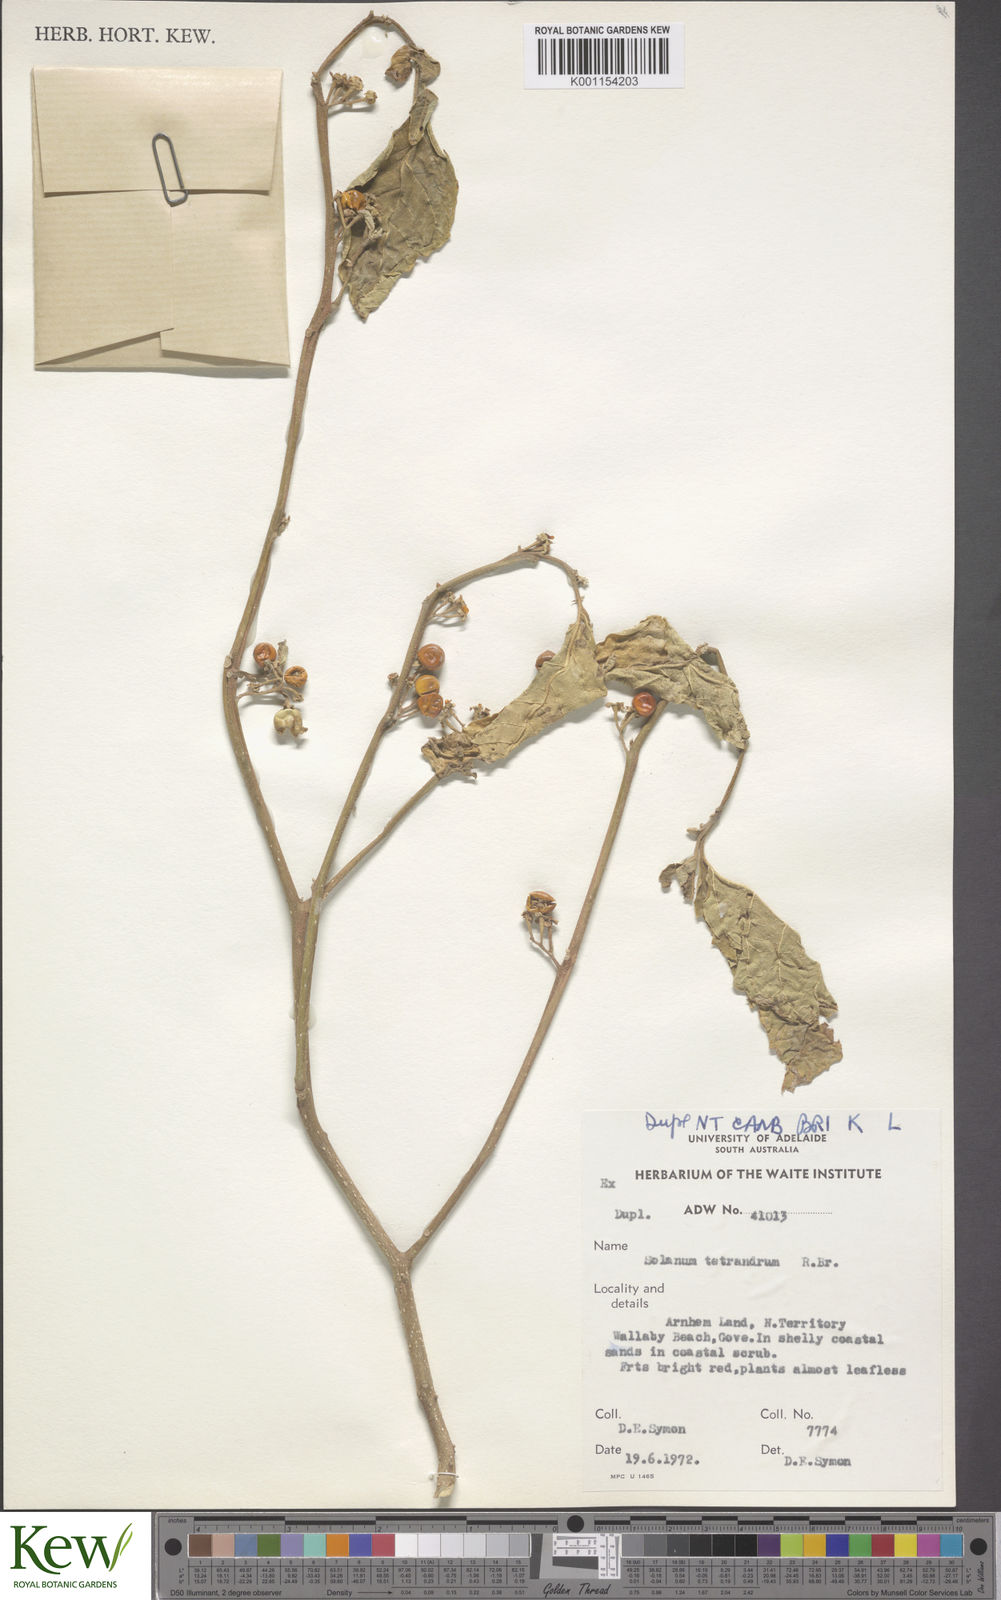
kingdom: Plantae
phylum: Tracheophyta
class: Magnoliopsida
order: Solanales
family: Solanaceae
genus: Solanum
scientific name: Solanum tetrandrum
